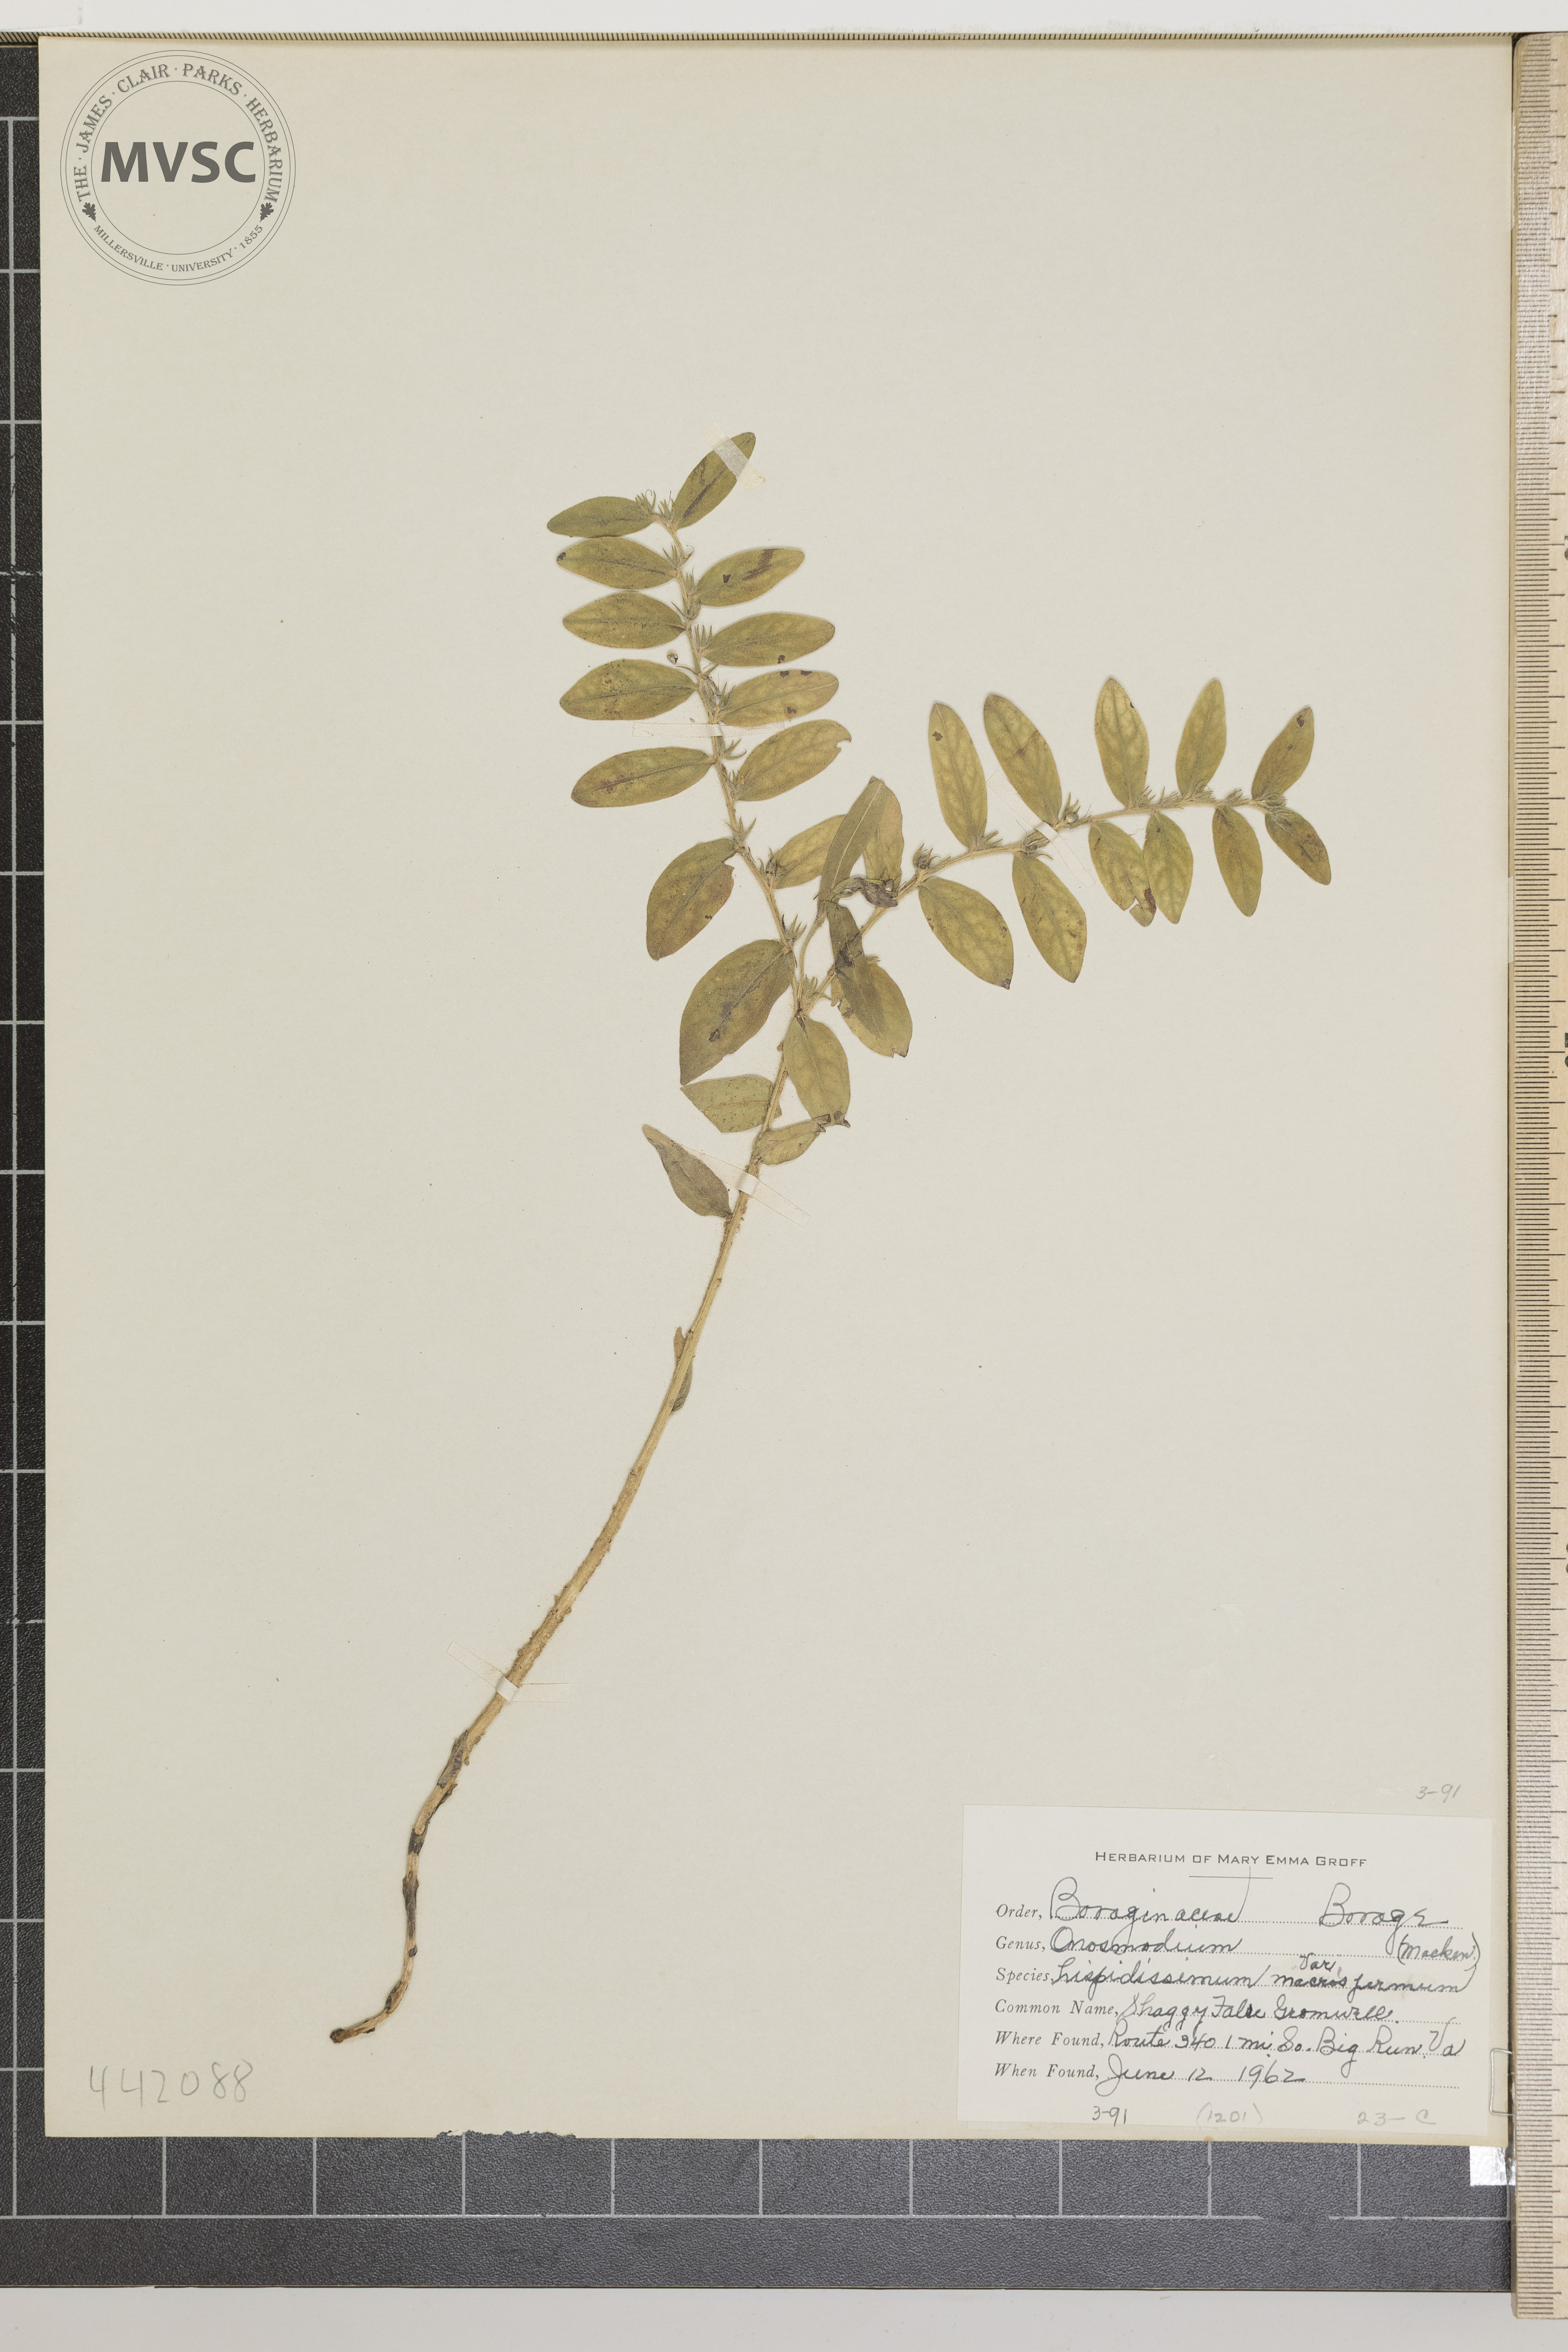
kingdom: Plantae
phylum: Tracheophyta
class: Magnoliopsida
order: Boraginales
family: Boraginaceae
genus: Lithospermum
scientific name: Lithospermum parviflorum
